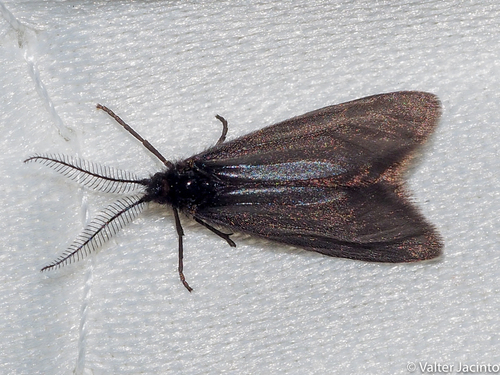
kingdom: Animalia
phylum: Arthropoda
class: Insecta
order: Lepidoptera
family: Heterogynidae
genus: Heterogynis
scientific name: Heterogynis penella
